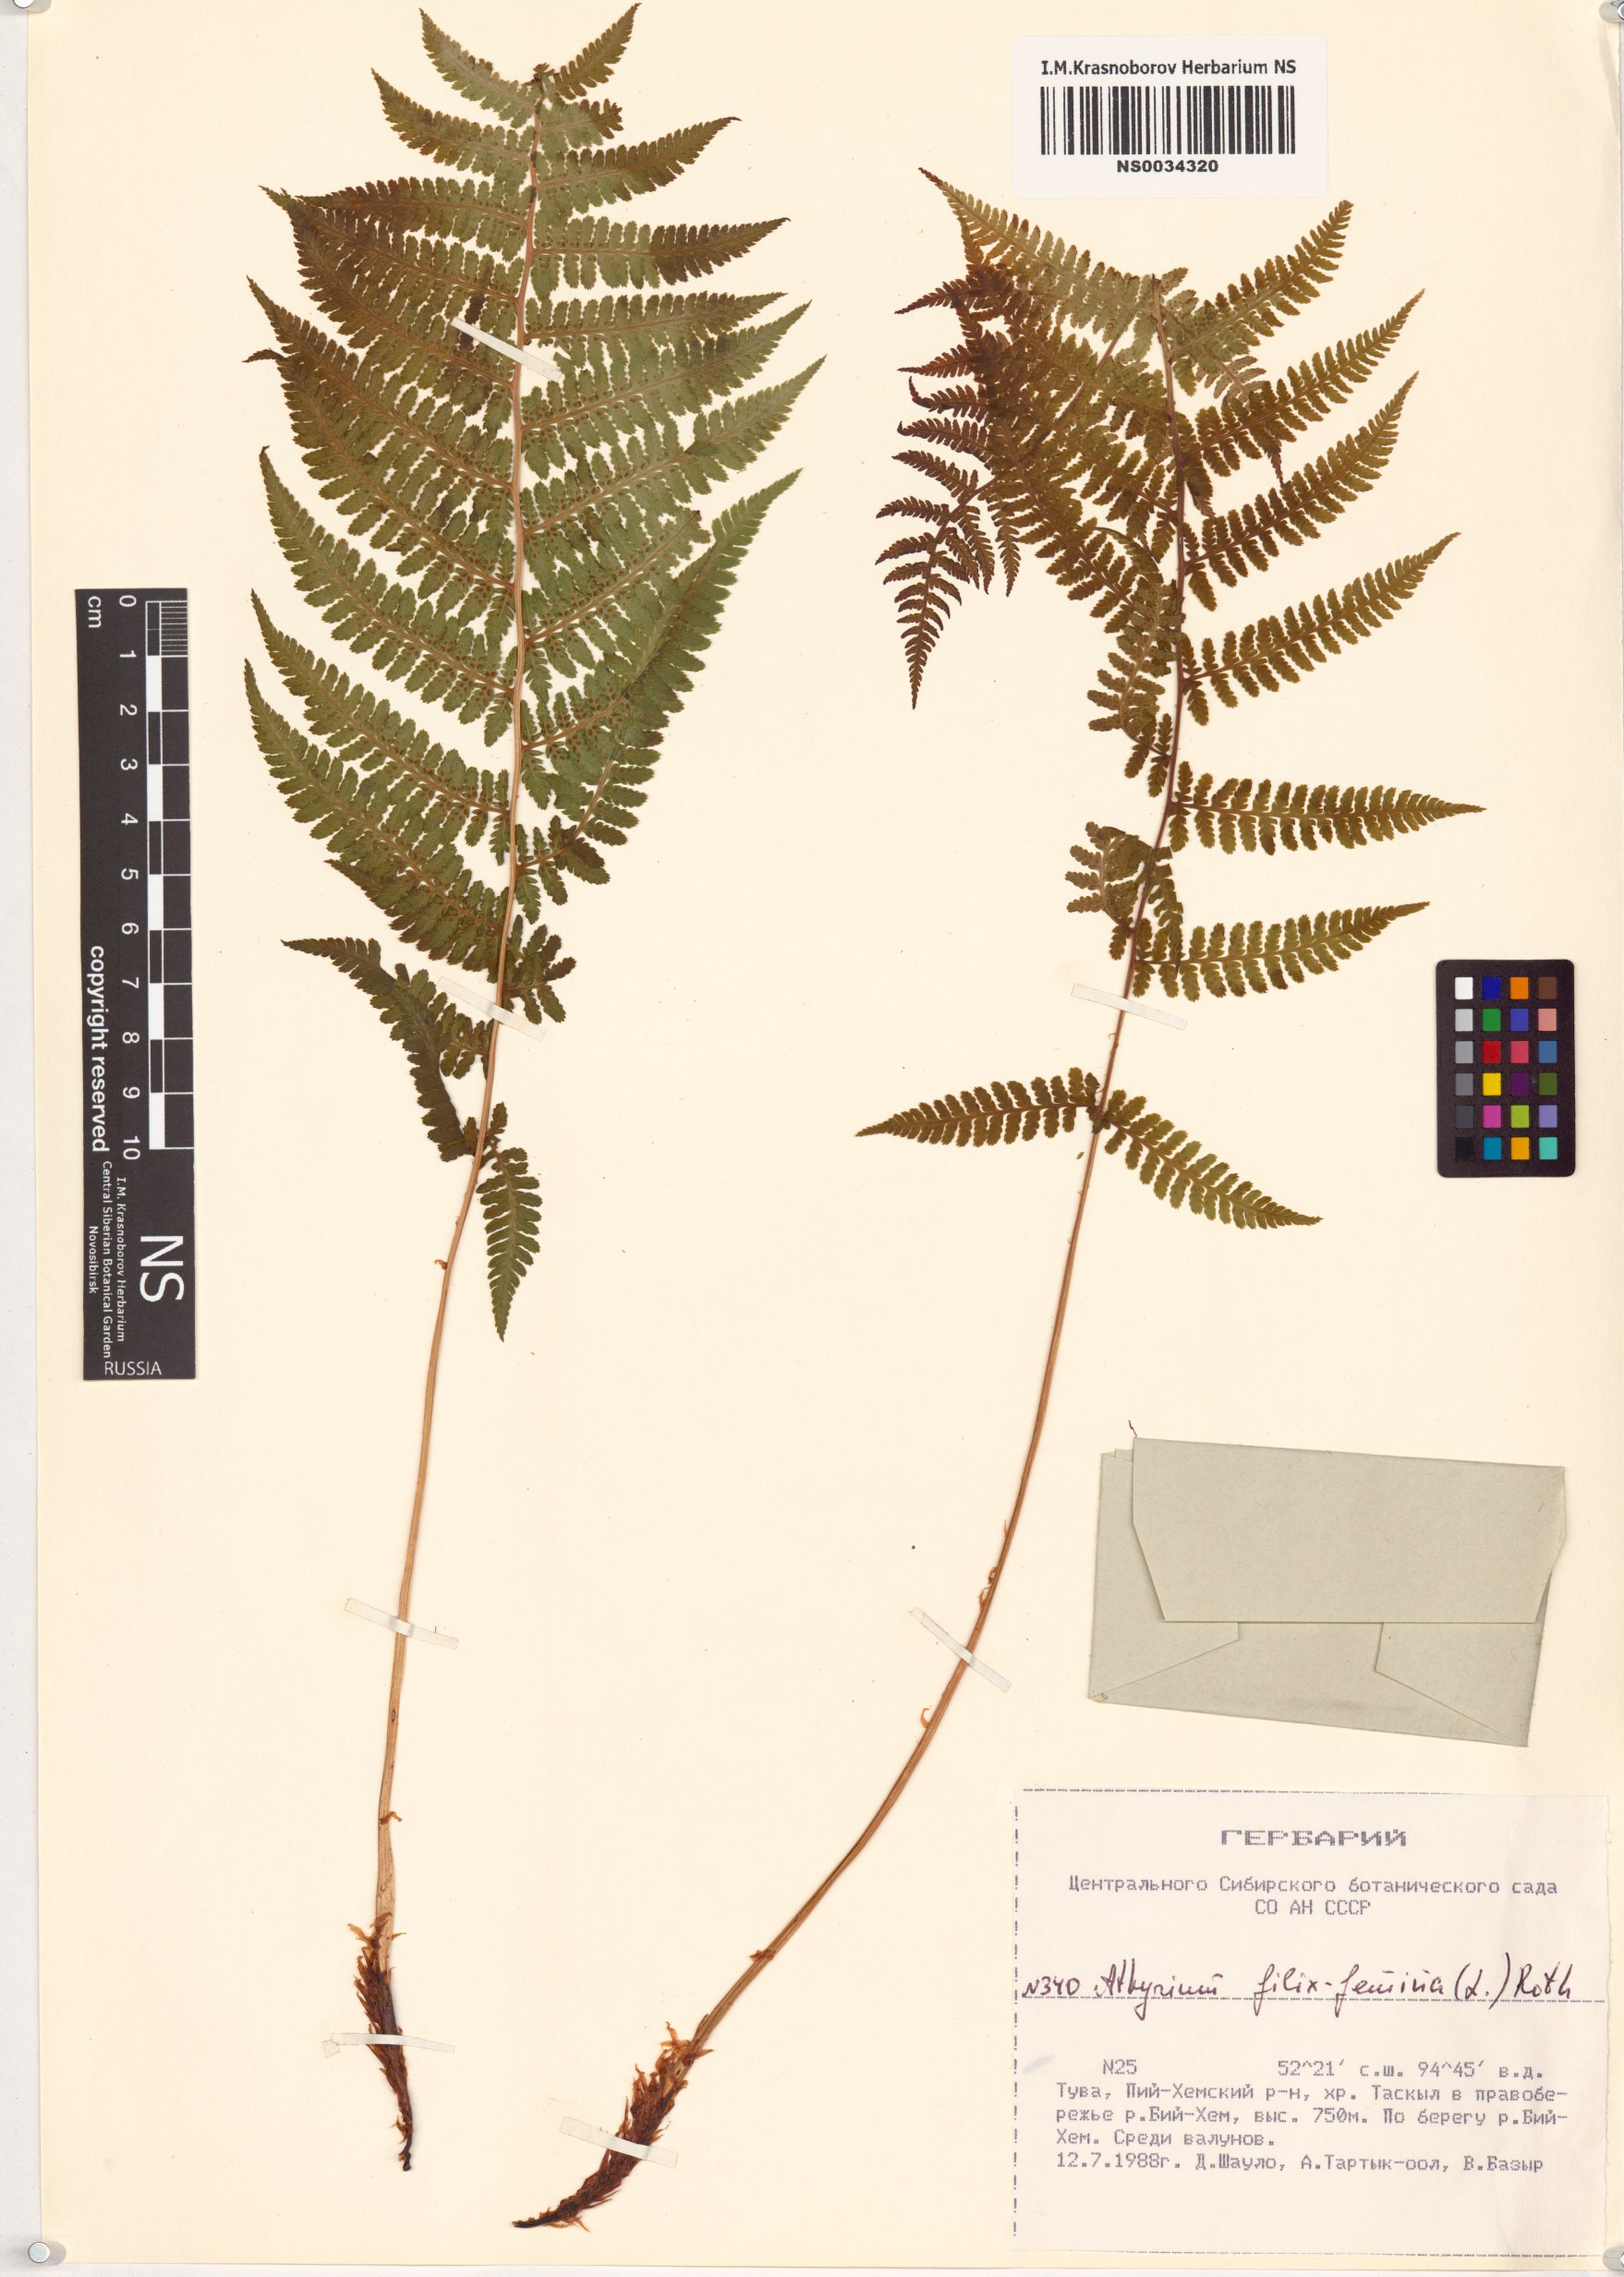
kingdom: Plantae
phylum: Tracheophyta
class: Polypodiopsida
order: Polypodiales
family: Athyriaceae
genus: Athyrium
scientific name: Athyrium filix-femina
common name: Lady fern
